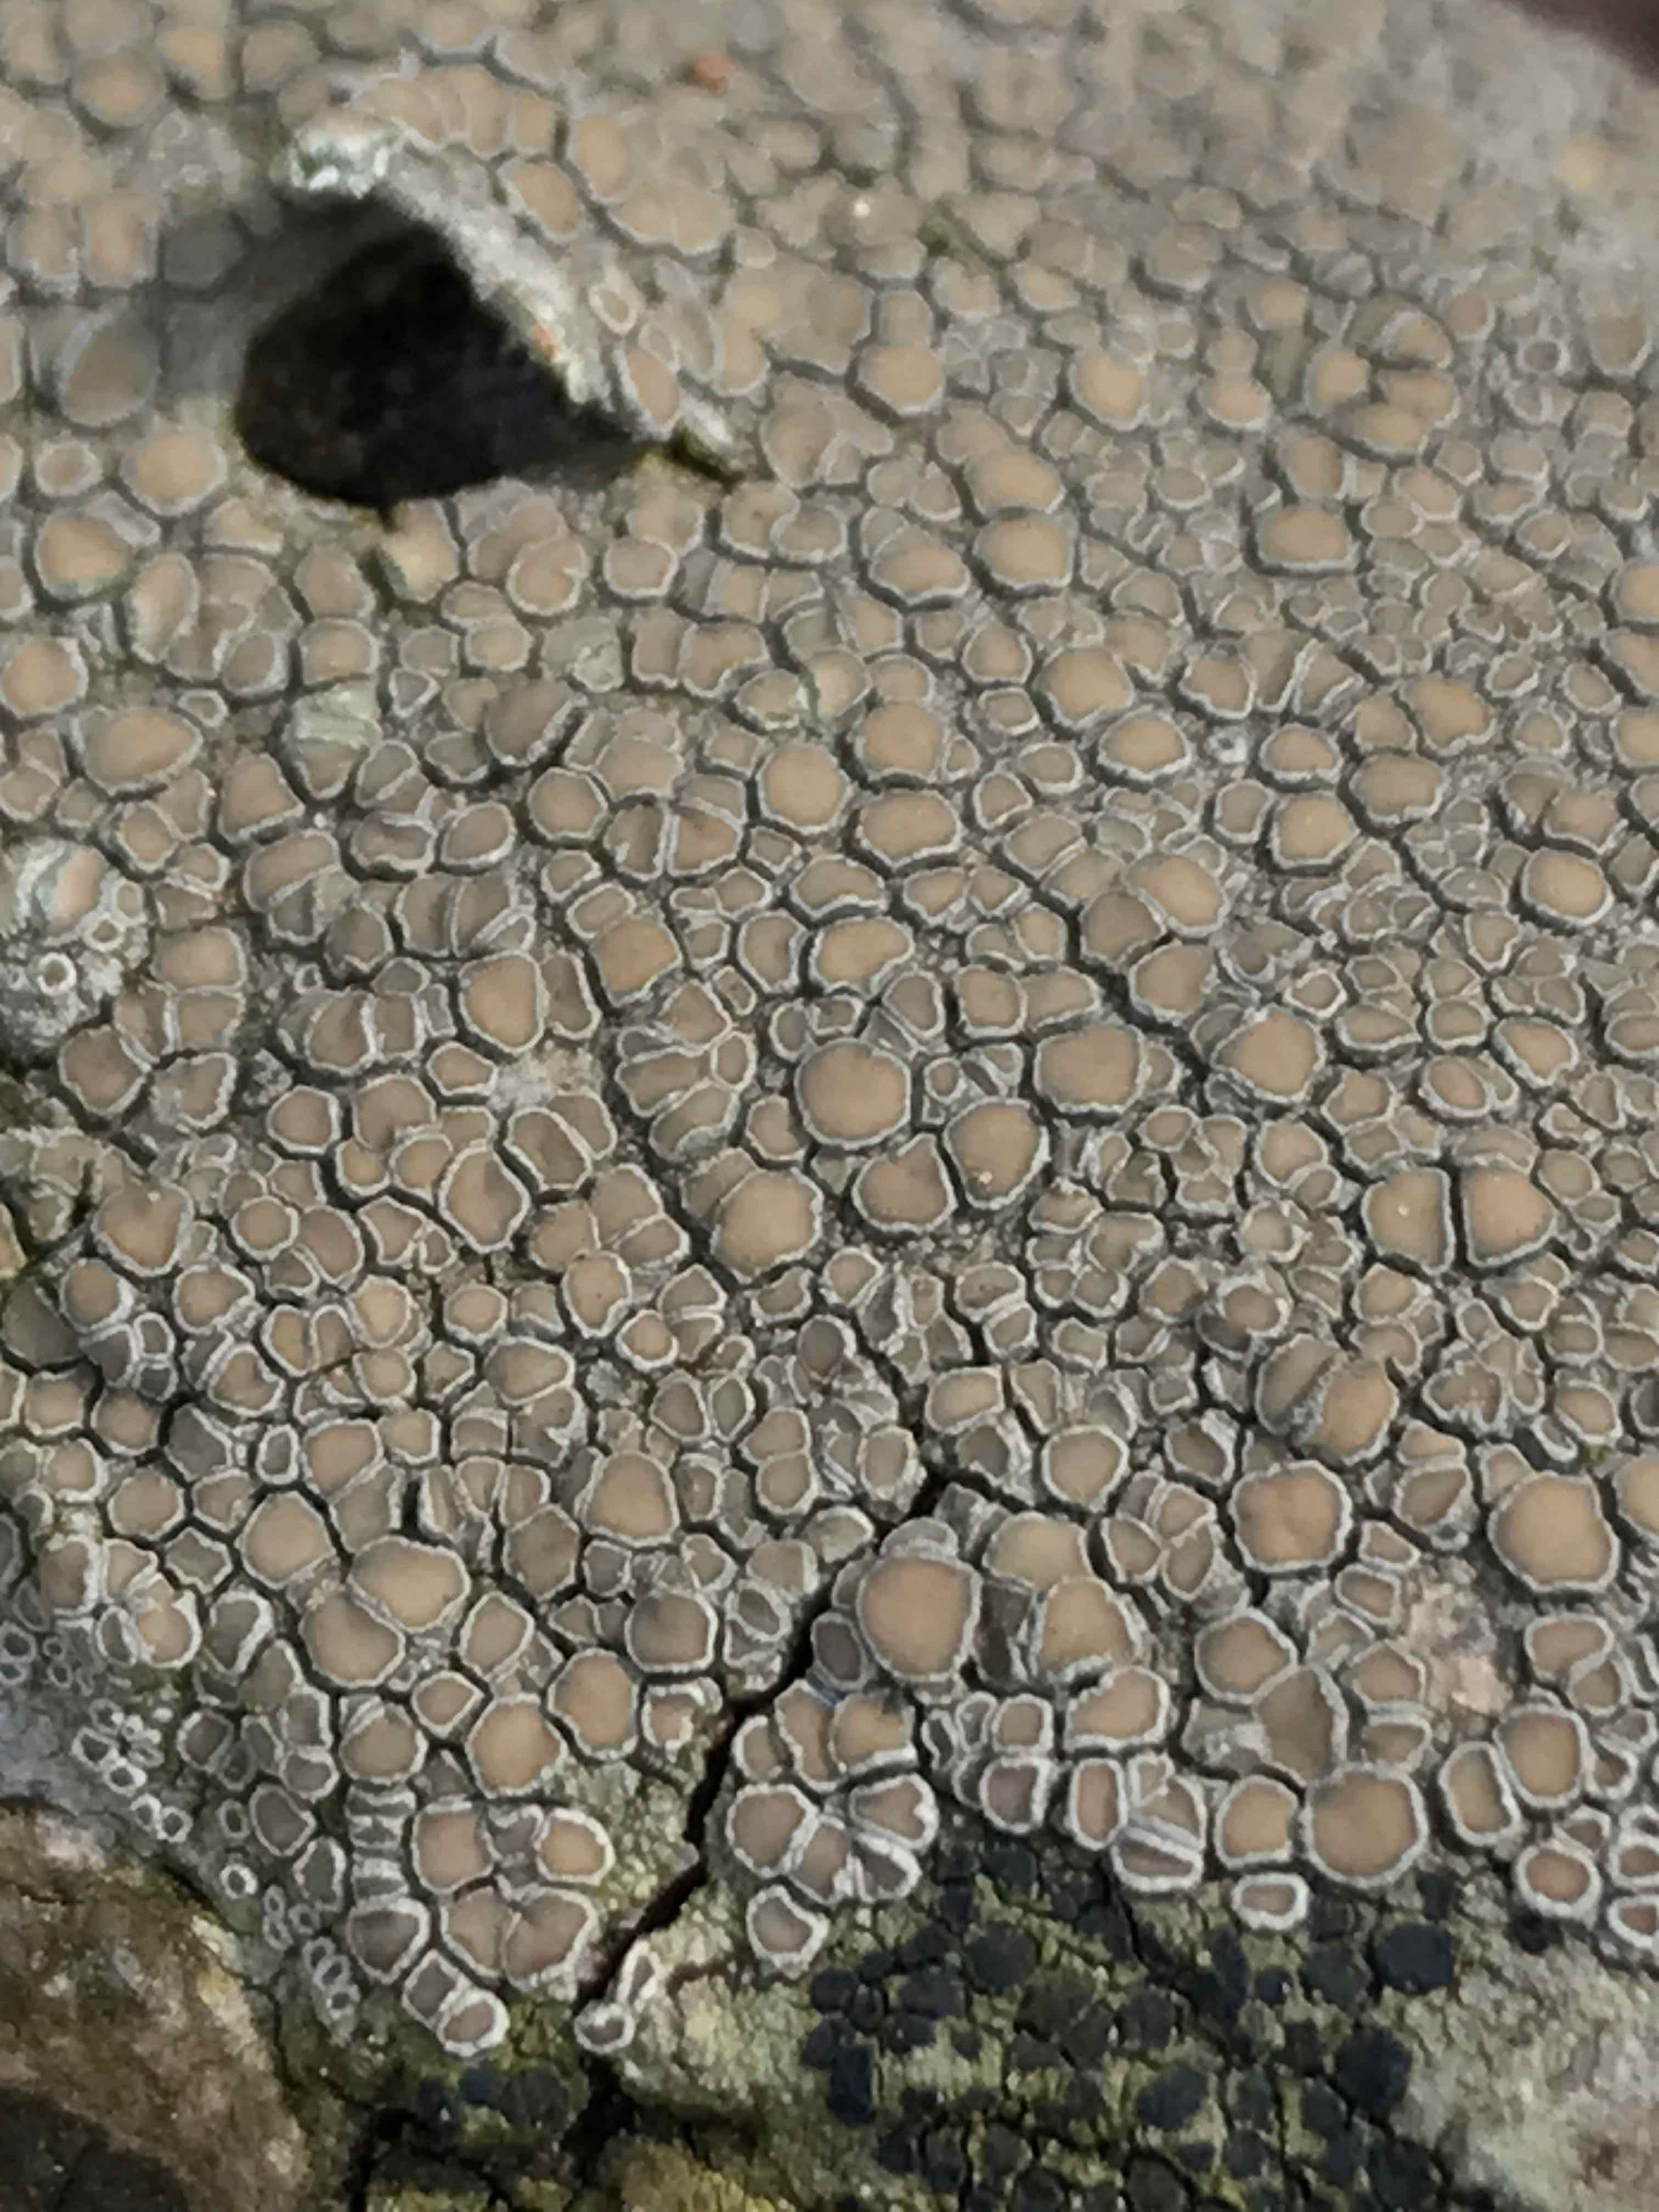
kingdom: Fungi
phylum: Ascomycota
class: Lecanoromycetes
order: Lecanorales
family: Lecanoraceae
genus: Lecanora
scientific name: Lecanora chlarotera
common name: brun kantskivelav
